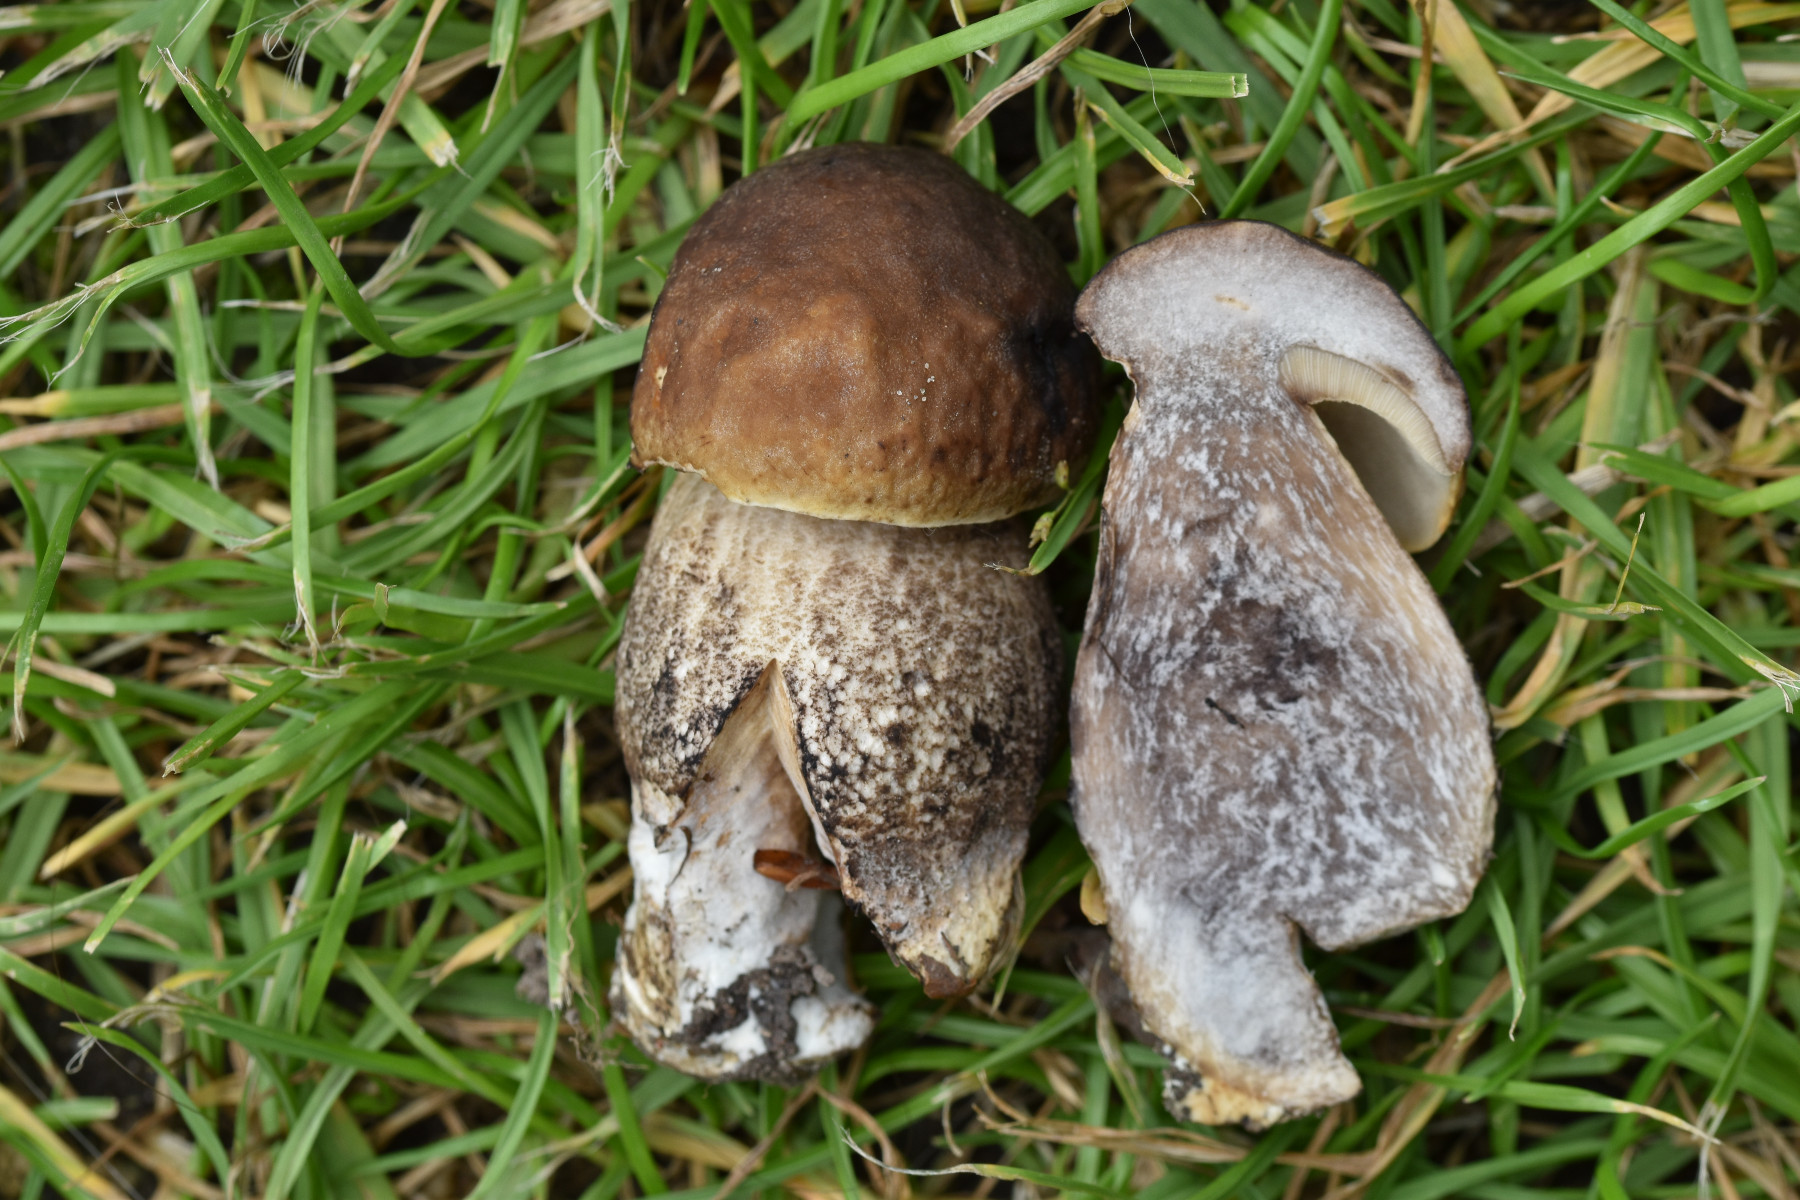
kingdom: Fungi
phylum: Basidiomycota
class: Agaricomycetes
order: Boletales
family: Boletaceae
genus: Leccinellum
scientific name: Leccinellum pseudoscabrum
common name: avnbøg-skælrørhat
